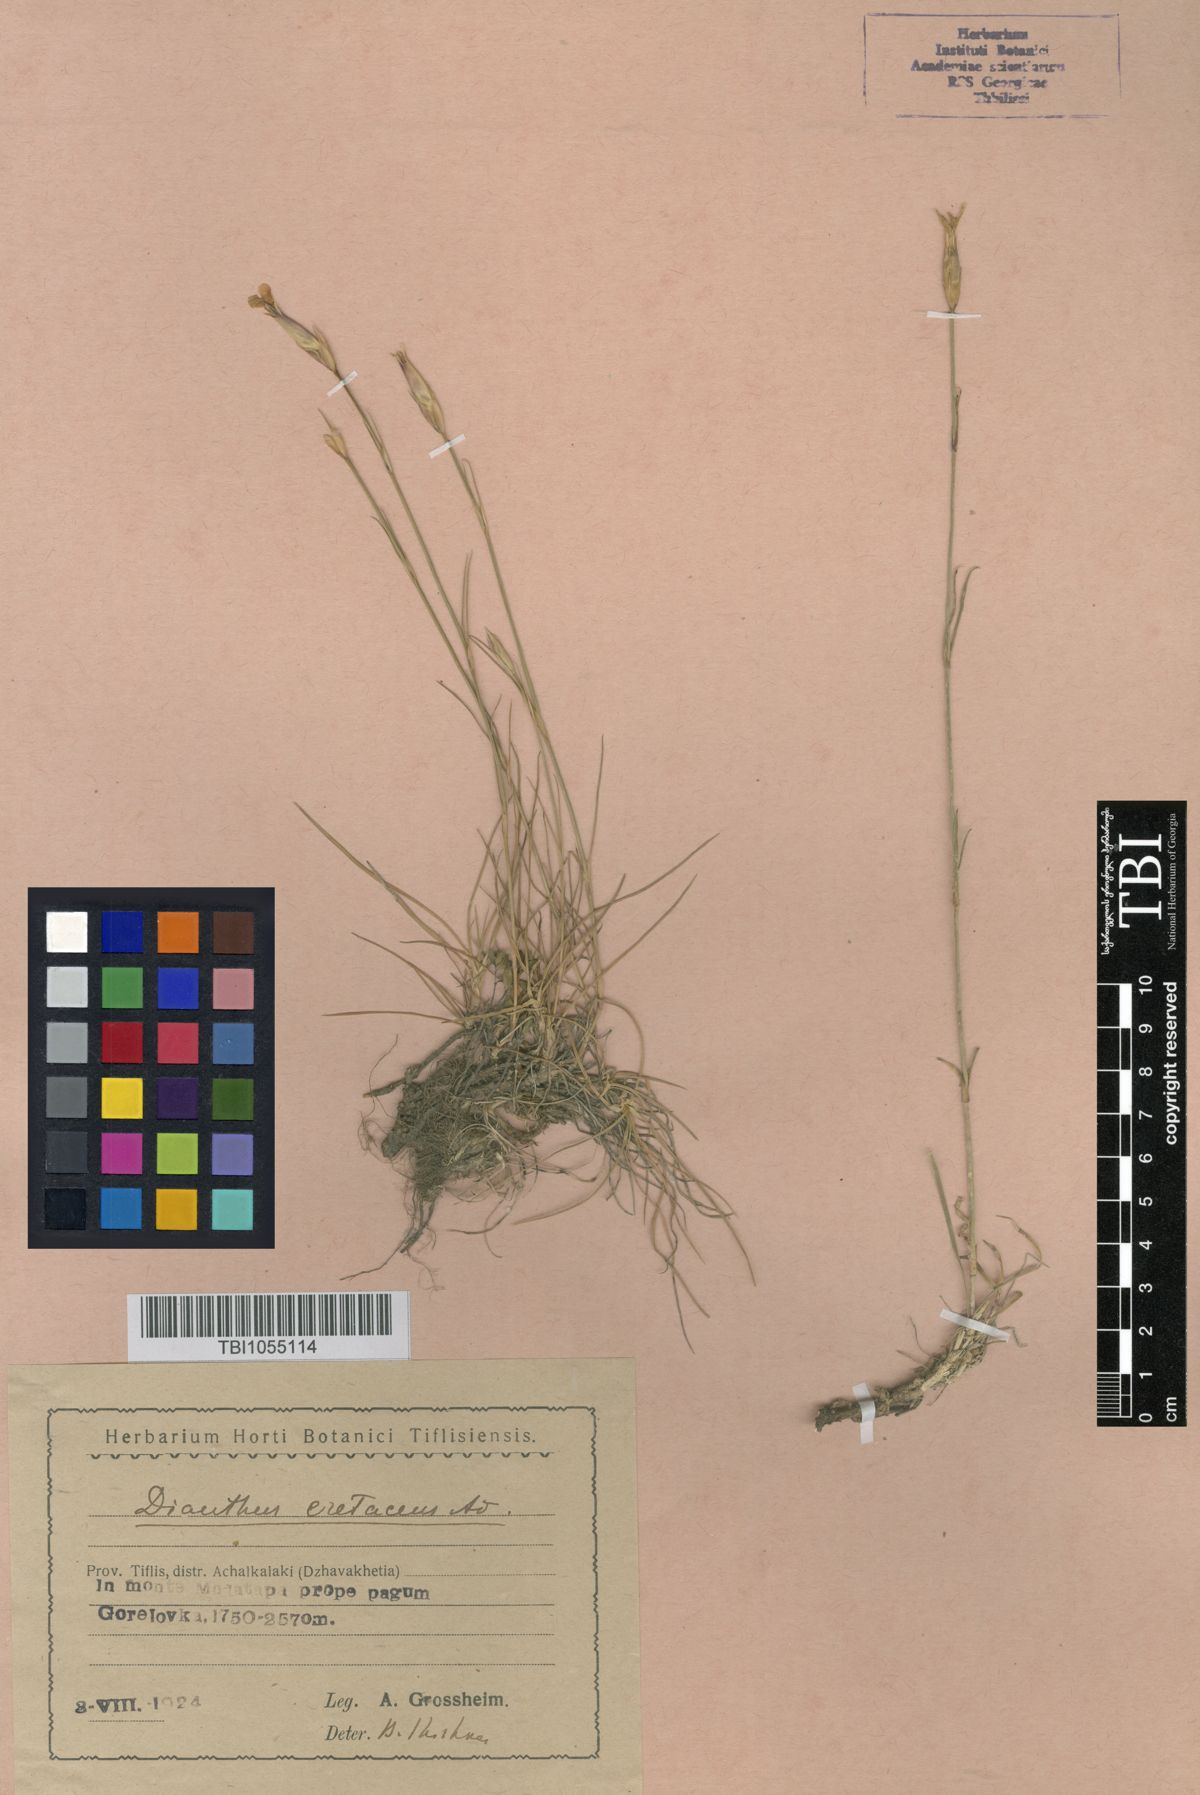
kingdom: Plantae
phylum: Tracheophyta
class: Magnoliopsida
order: Caryophyllales
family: Caryophyllaceae
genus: Dianthus
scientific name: Dianthus cretaceus
